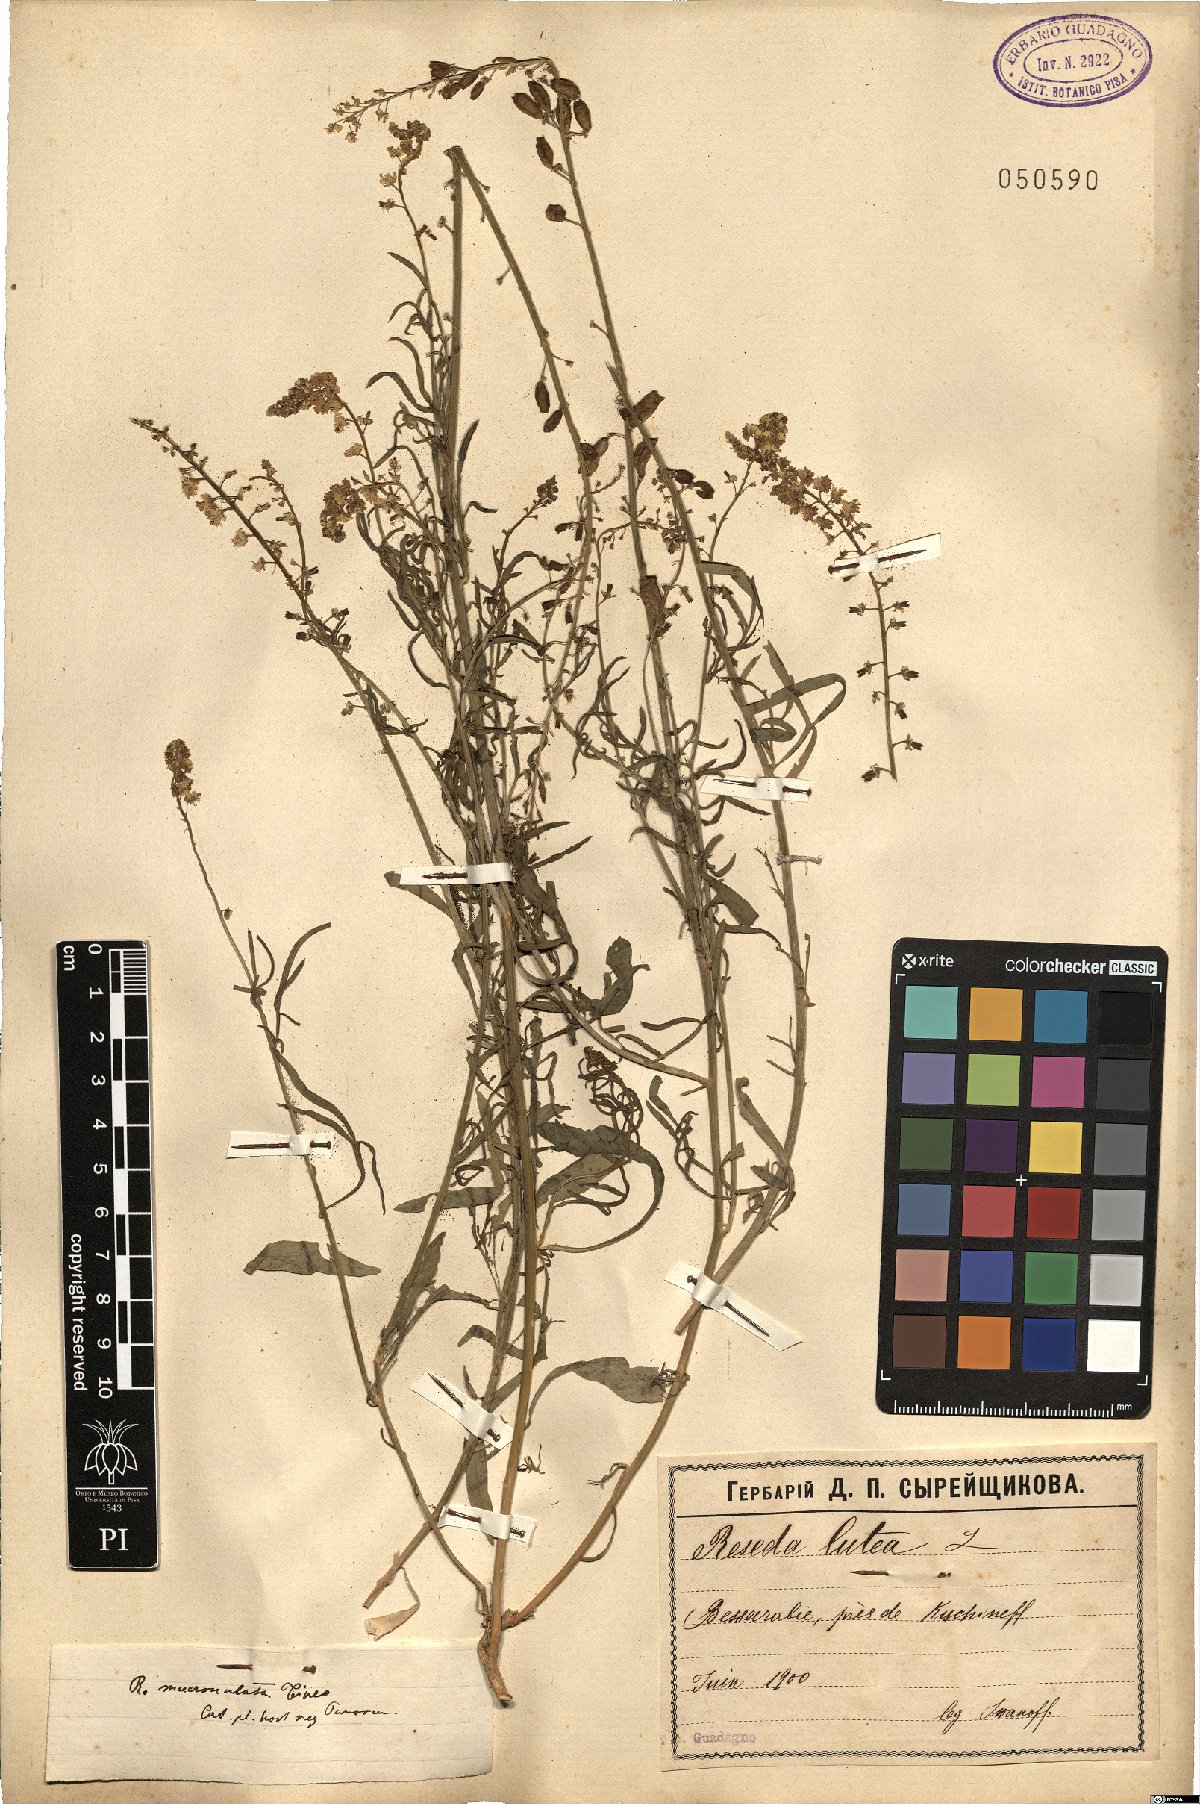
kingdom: Plantae
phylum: Tracheophyta
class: Magnoliopsida
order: Brassicales
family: Resedaceae
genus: Reseda
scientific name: Reseda lutea
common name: Wild mignonette
